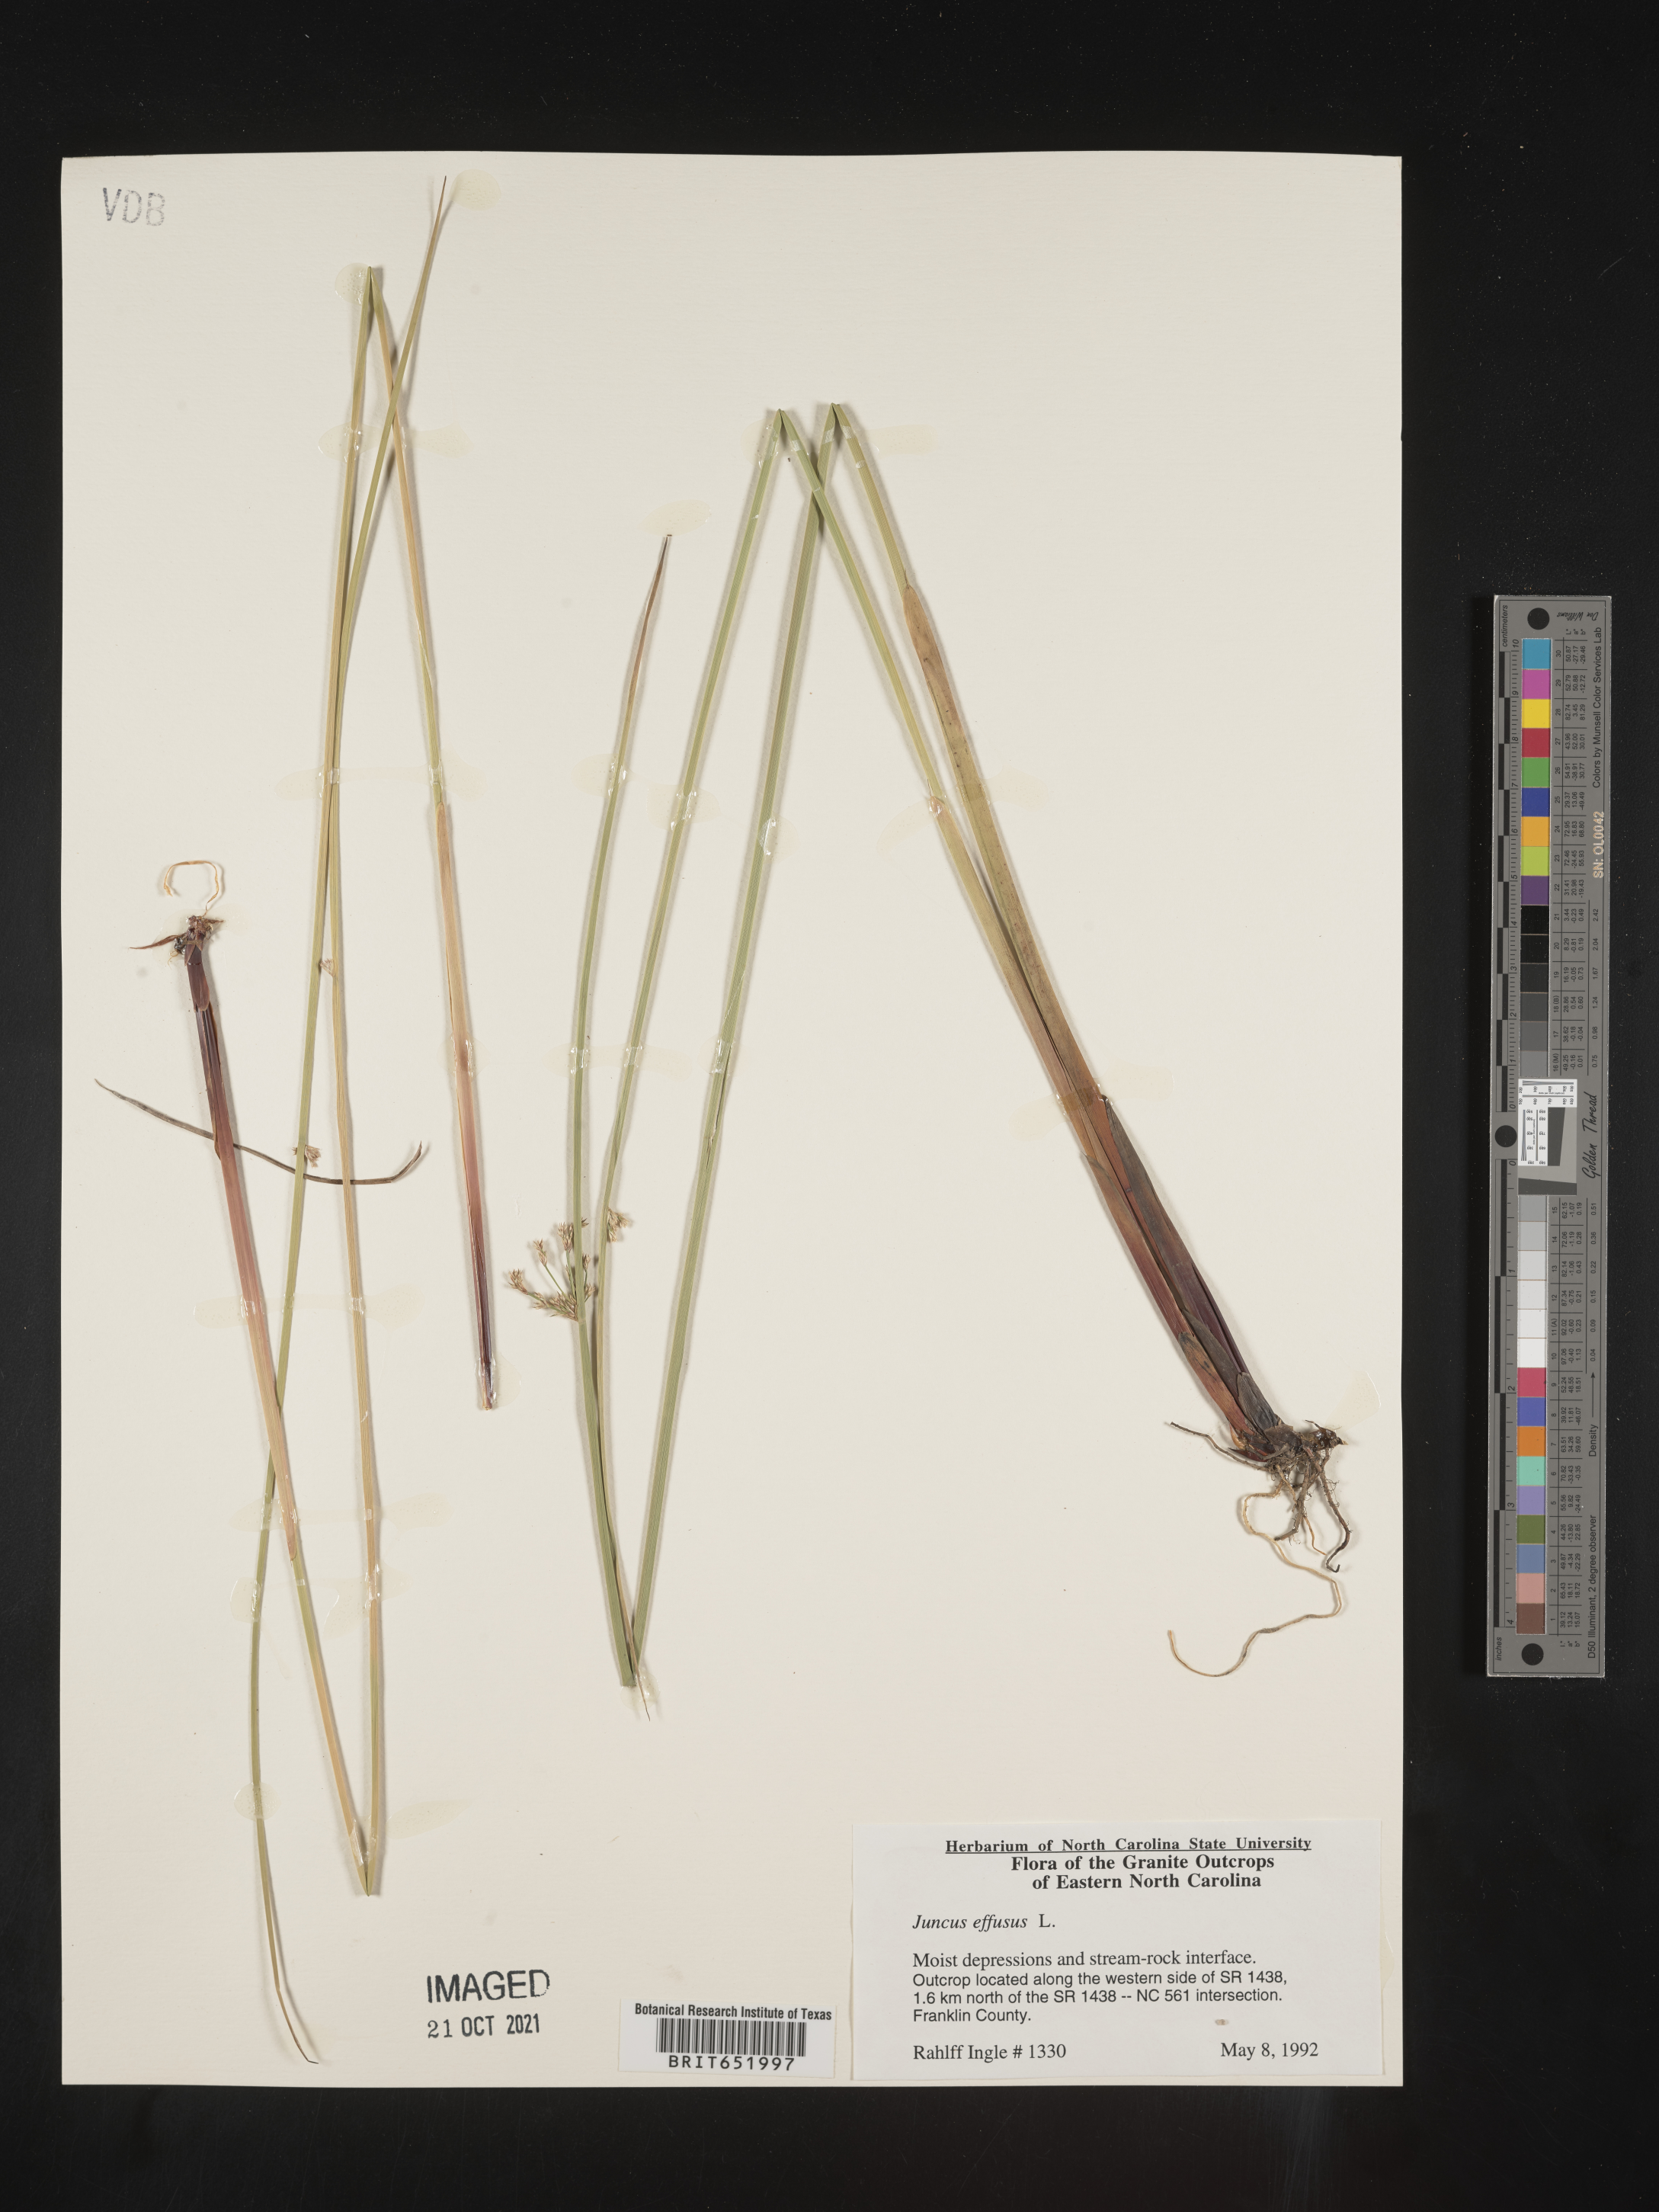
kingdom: Plantae
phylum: Tracheophyta
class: Liliopsida
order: Poales
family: Juncaceae
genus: Juncus
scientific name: Juncus effusus
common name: Soft rush
